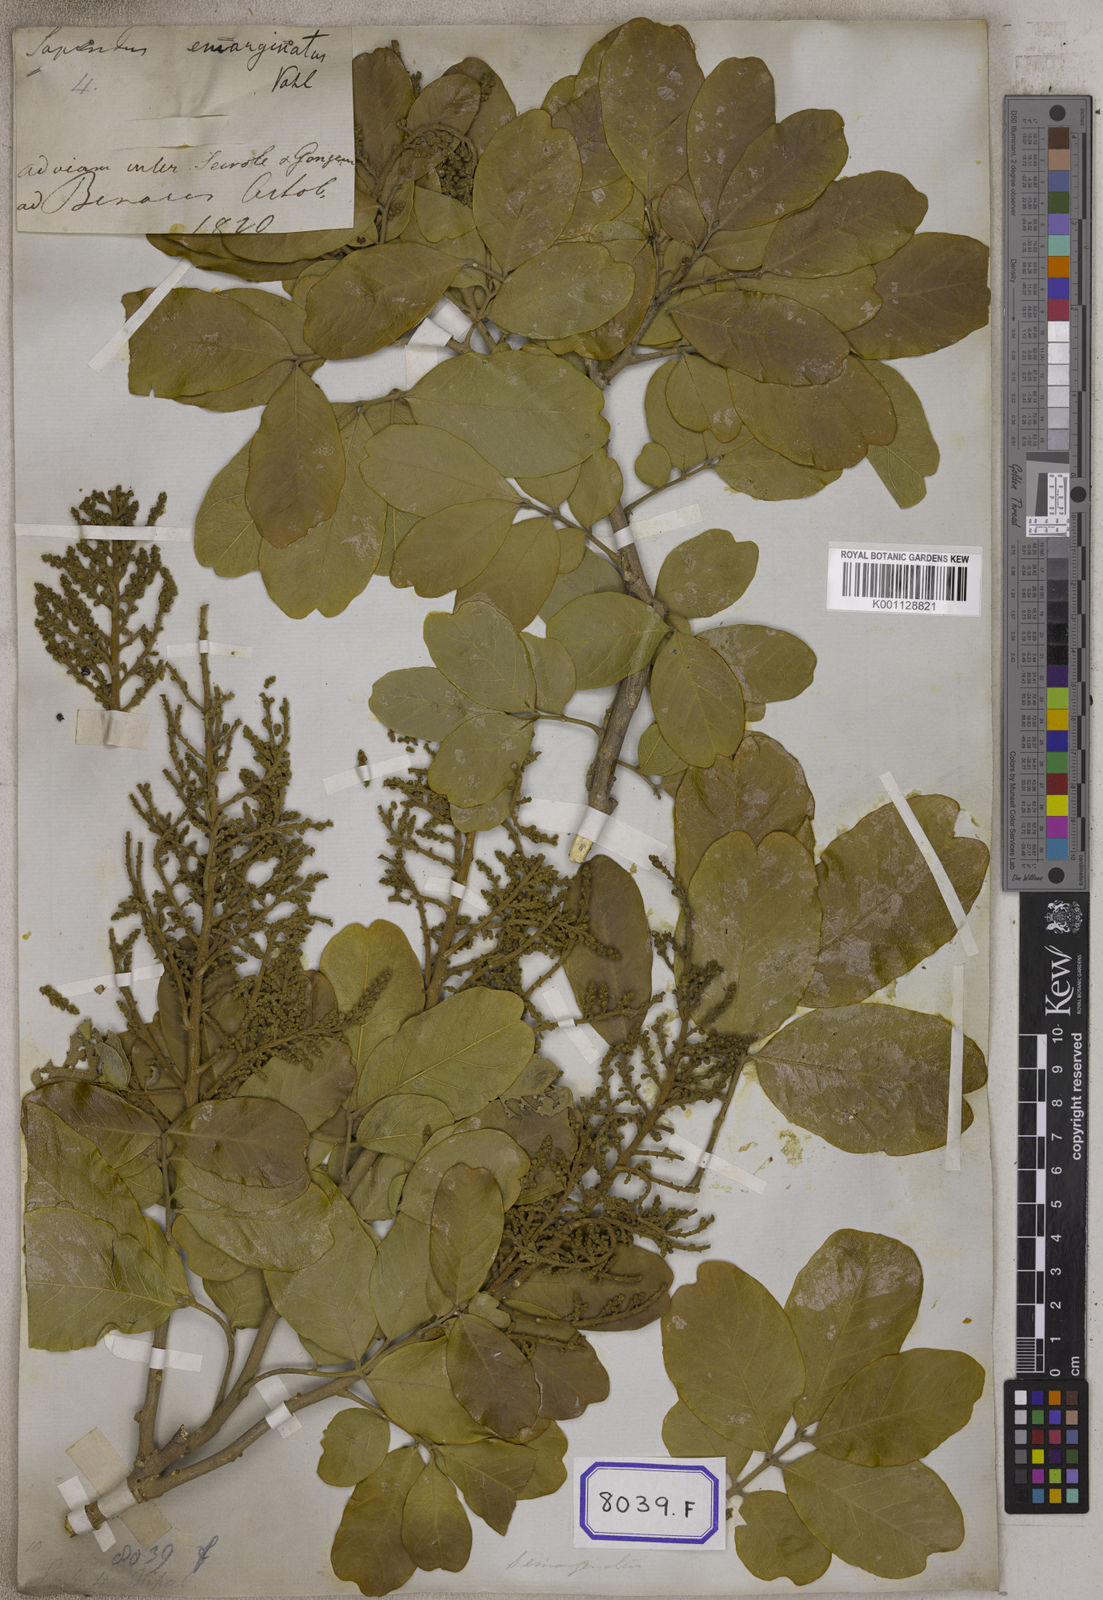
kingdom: Plantae
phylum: Tracheophyta
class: Magnoliopsida
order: Sapindales
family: Sapindaceae
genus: Sapindus
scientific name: Sapindus emarginatus
